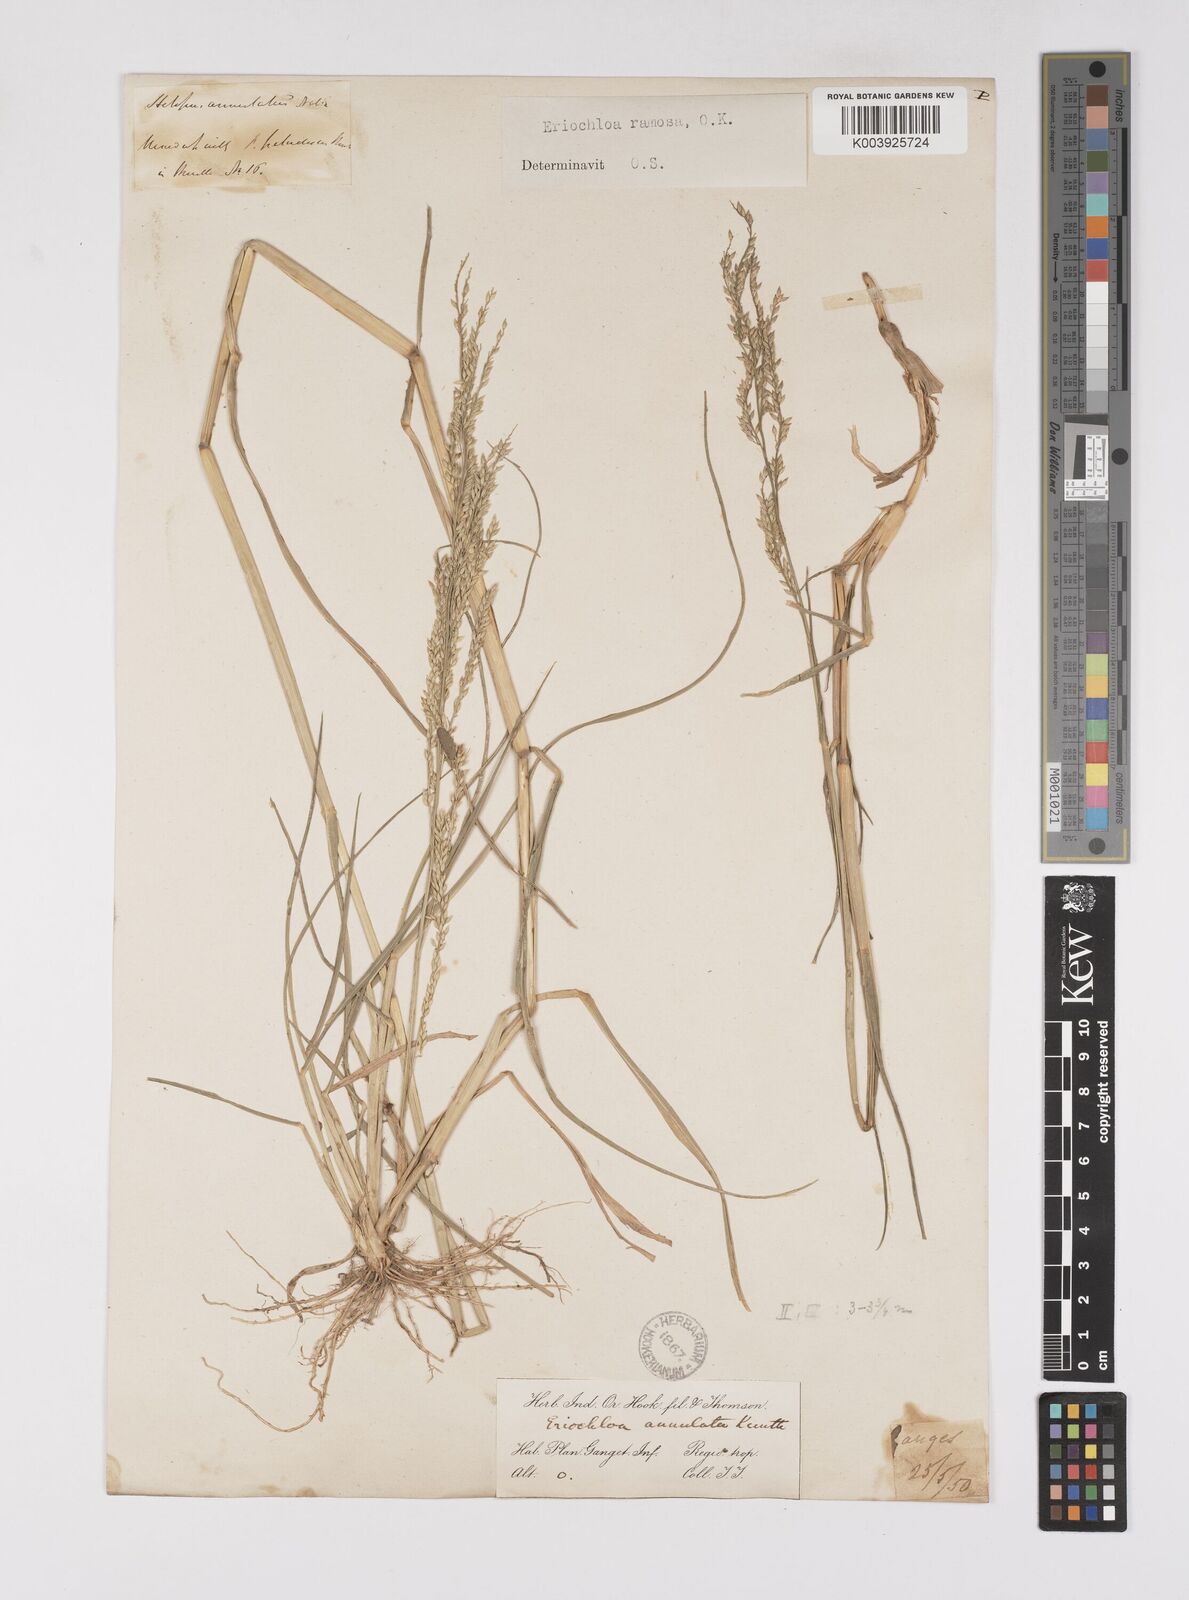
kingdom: Plantae
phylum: Tracheophyta
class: Liliopsida
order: Poales
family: Poaceae
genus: Eriochloa
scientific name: Eriochloa procera
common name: Spring grass
